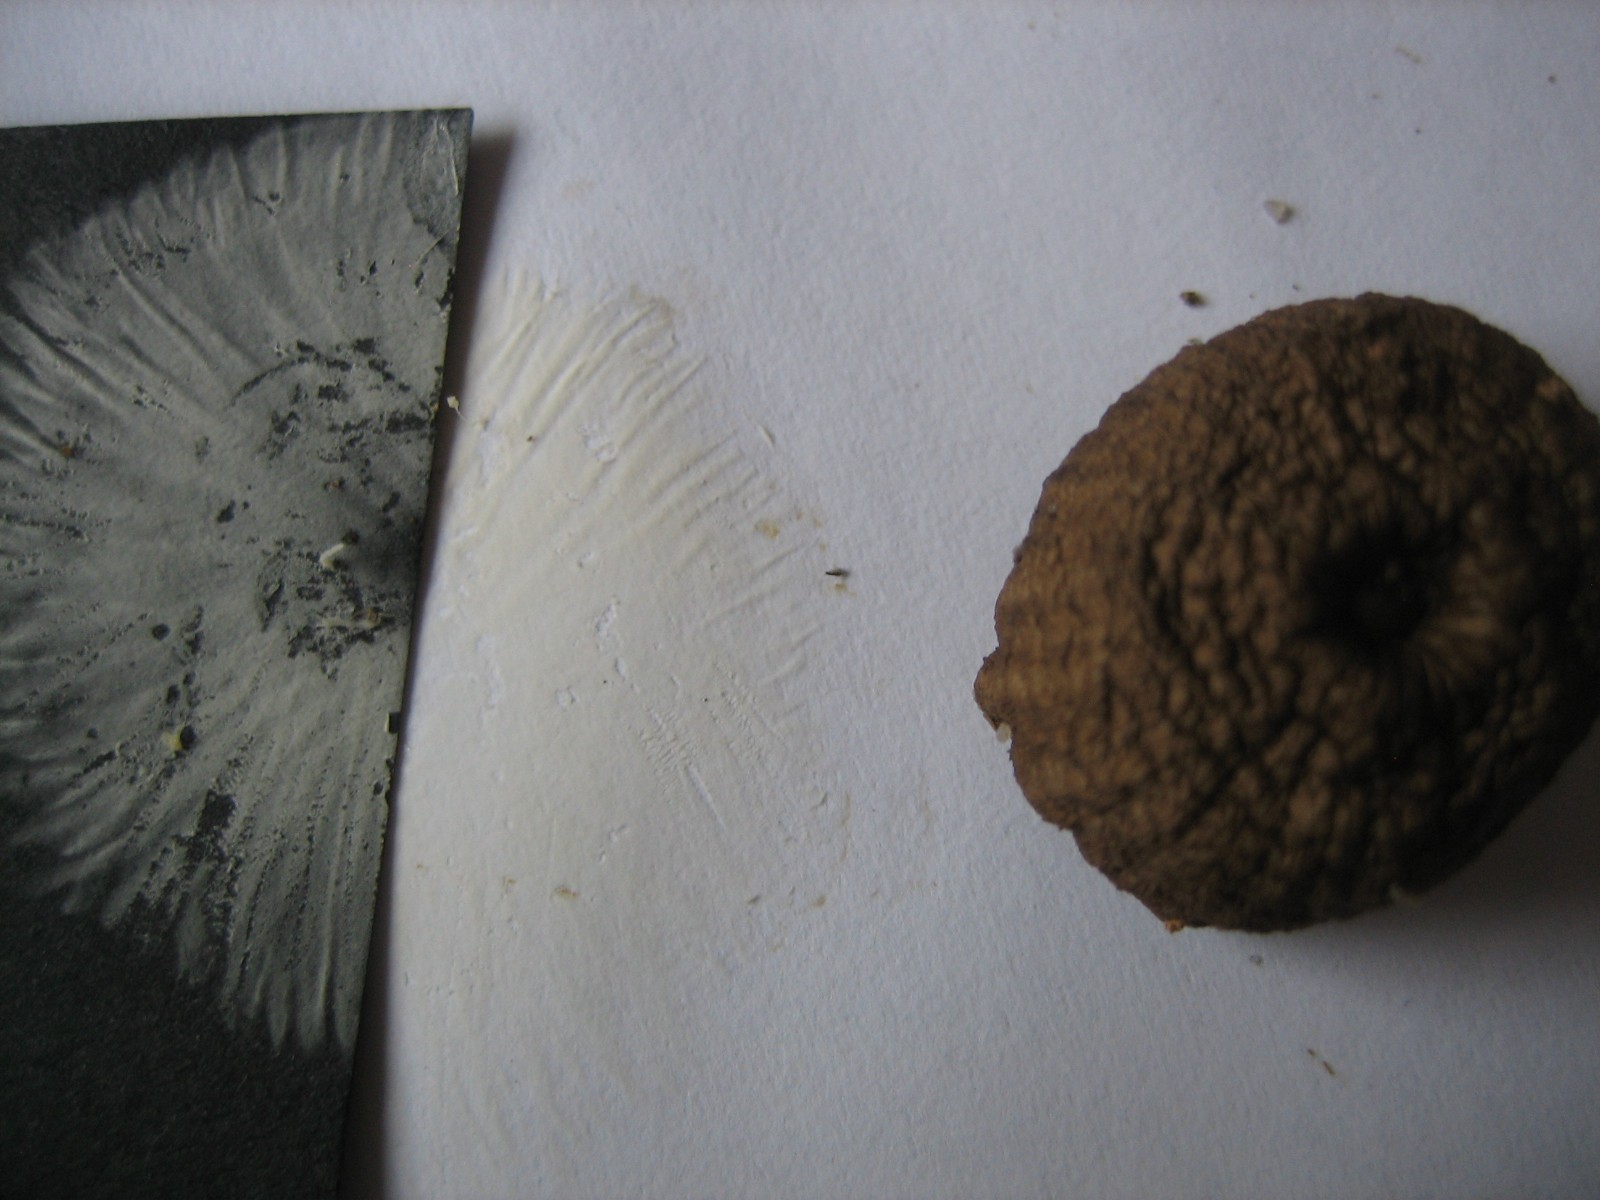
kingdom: Fungi
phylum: Basidiomycota
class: Agaricomycetes
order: Agaricales
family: Mycenaceae
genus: Mycena
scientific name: Mycena
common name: huesvamp
